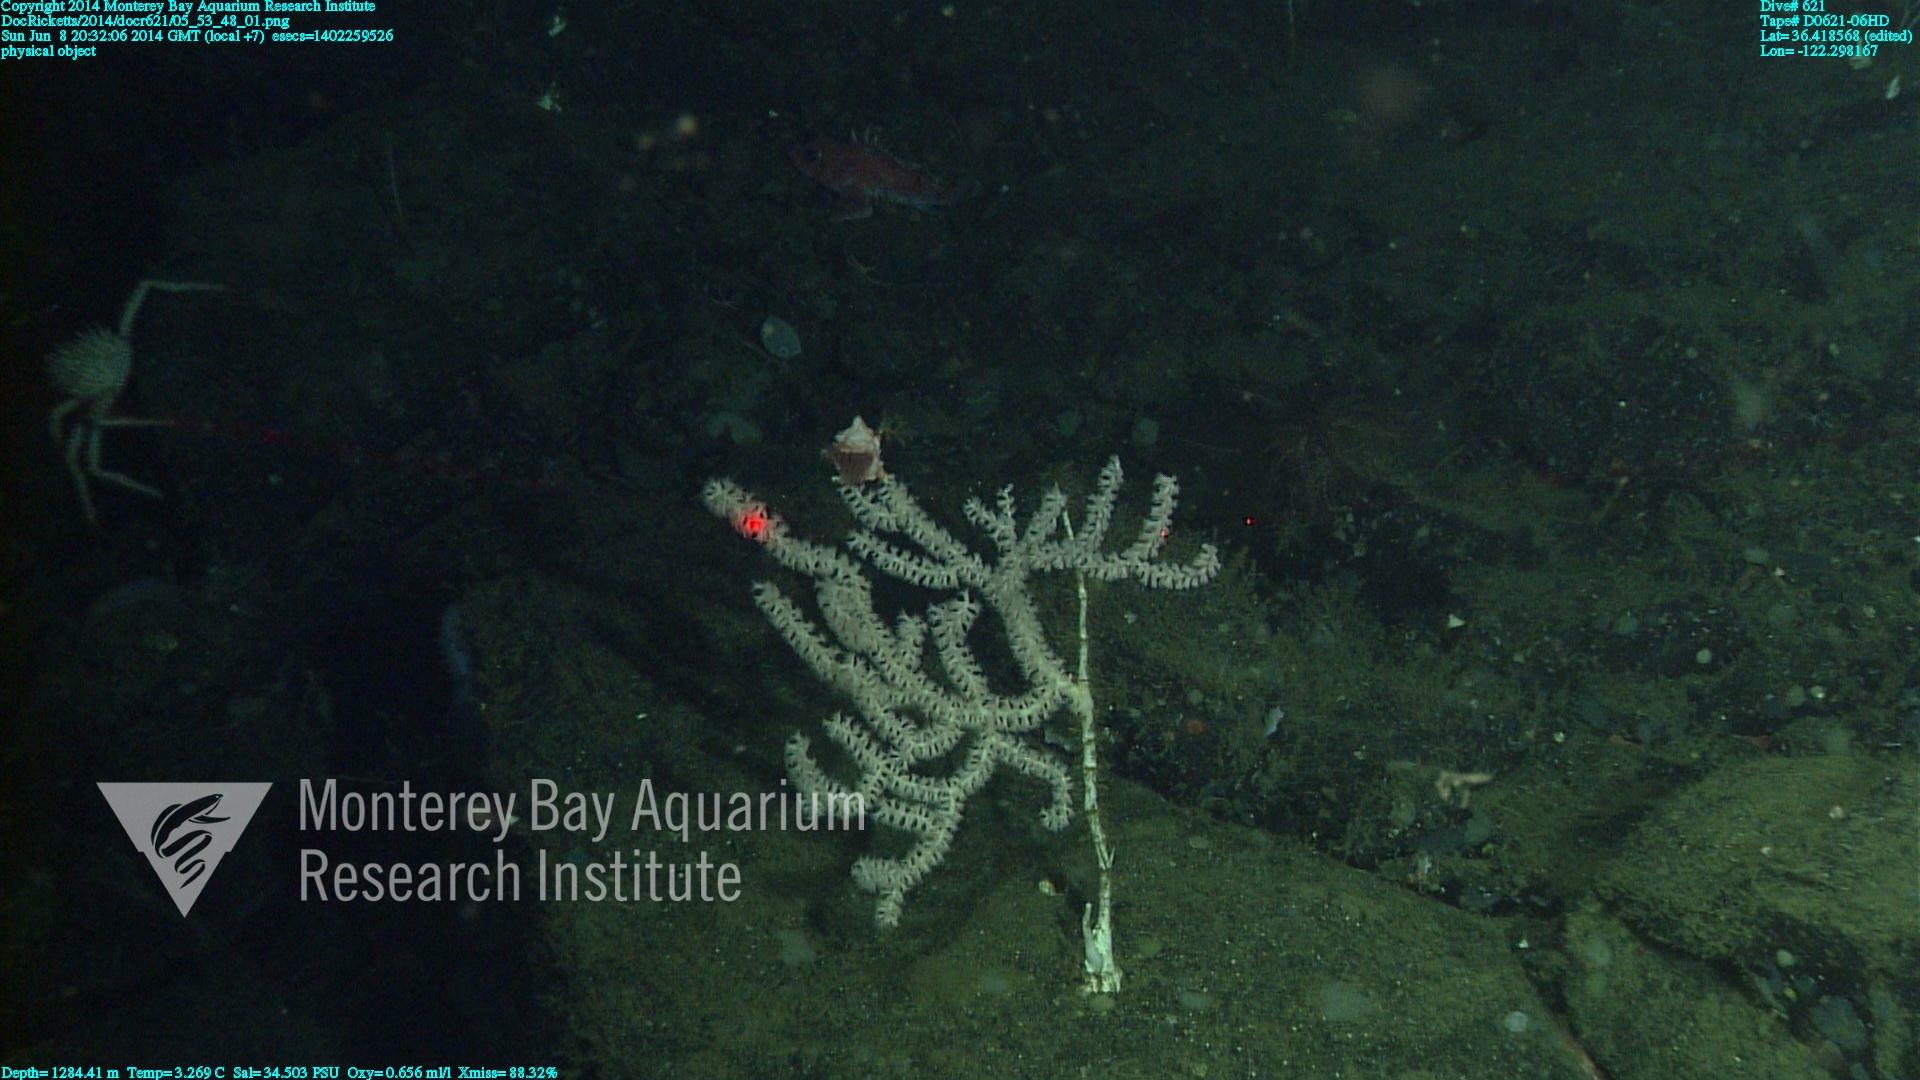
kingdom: Animalia
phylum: Cnidaria
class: Anthozoa
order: Scleralcyonacea
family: Keratoisididae
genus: Keratoisis
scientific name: Keratoisis
